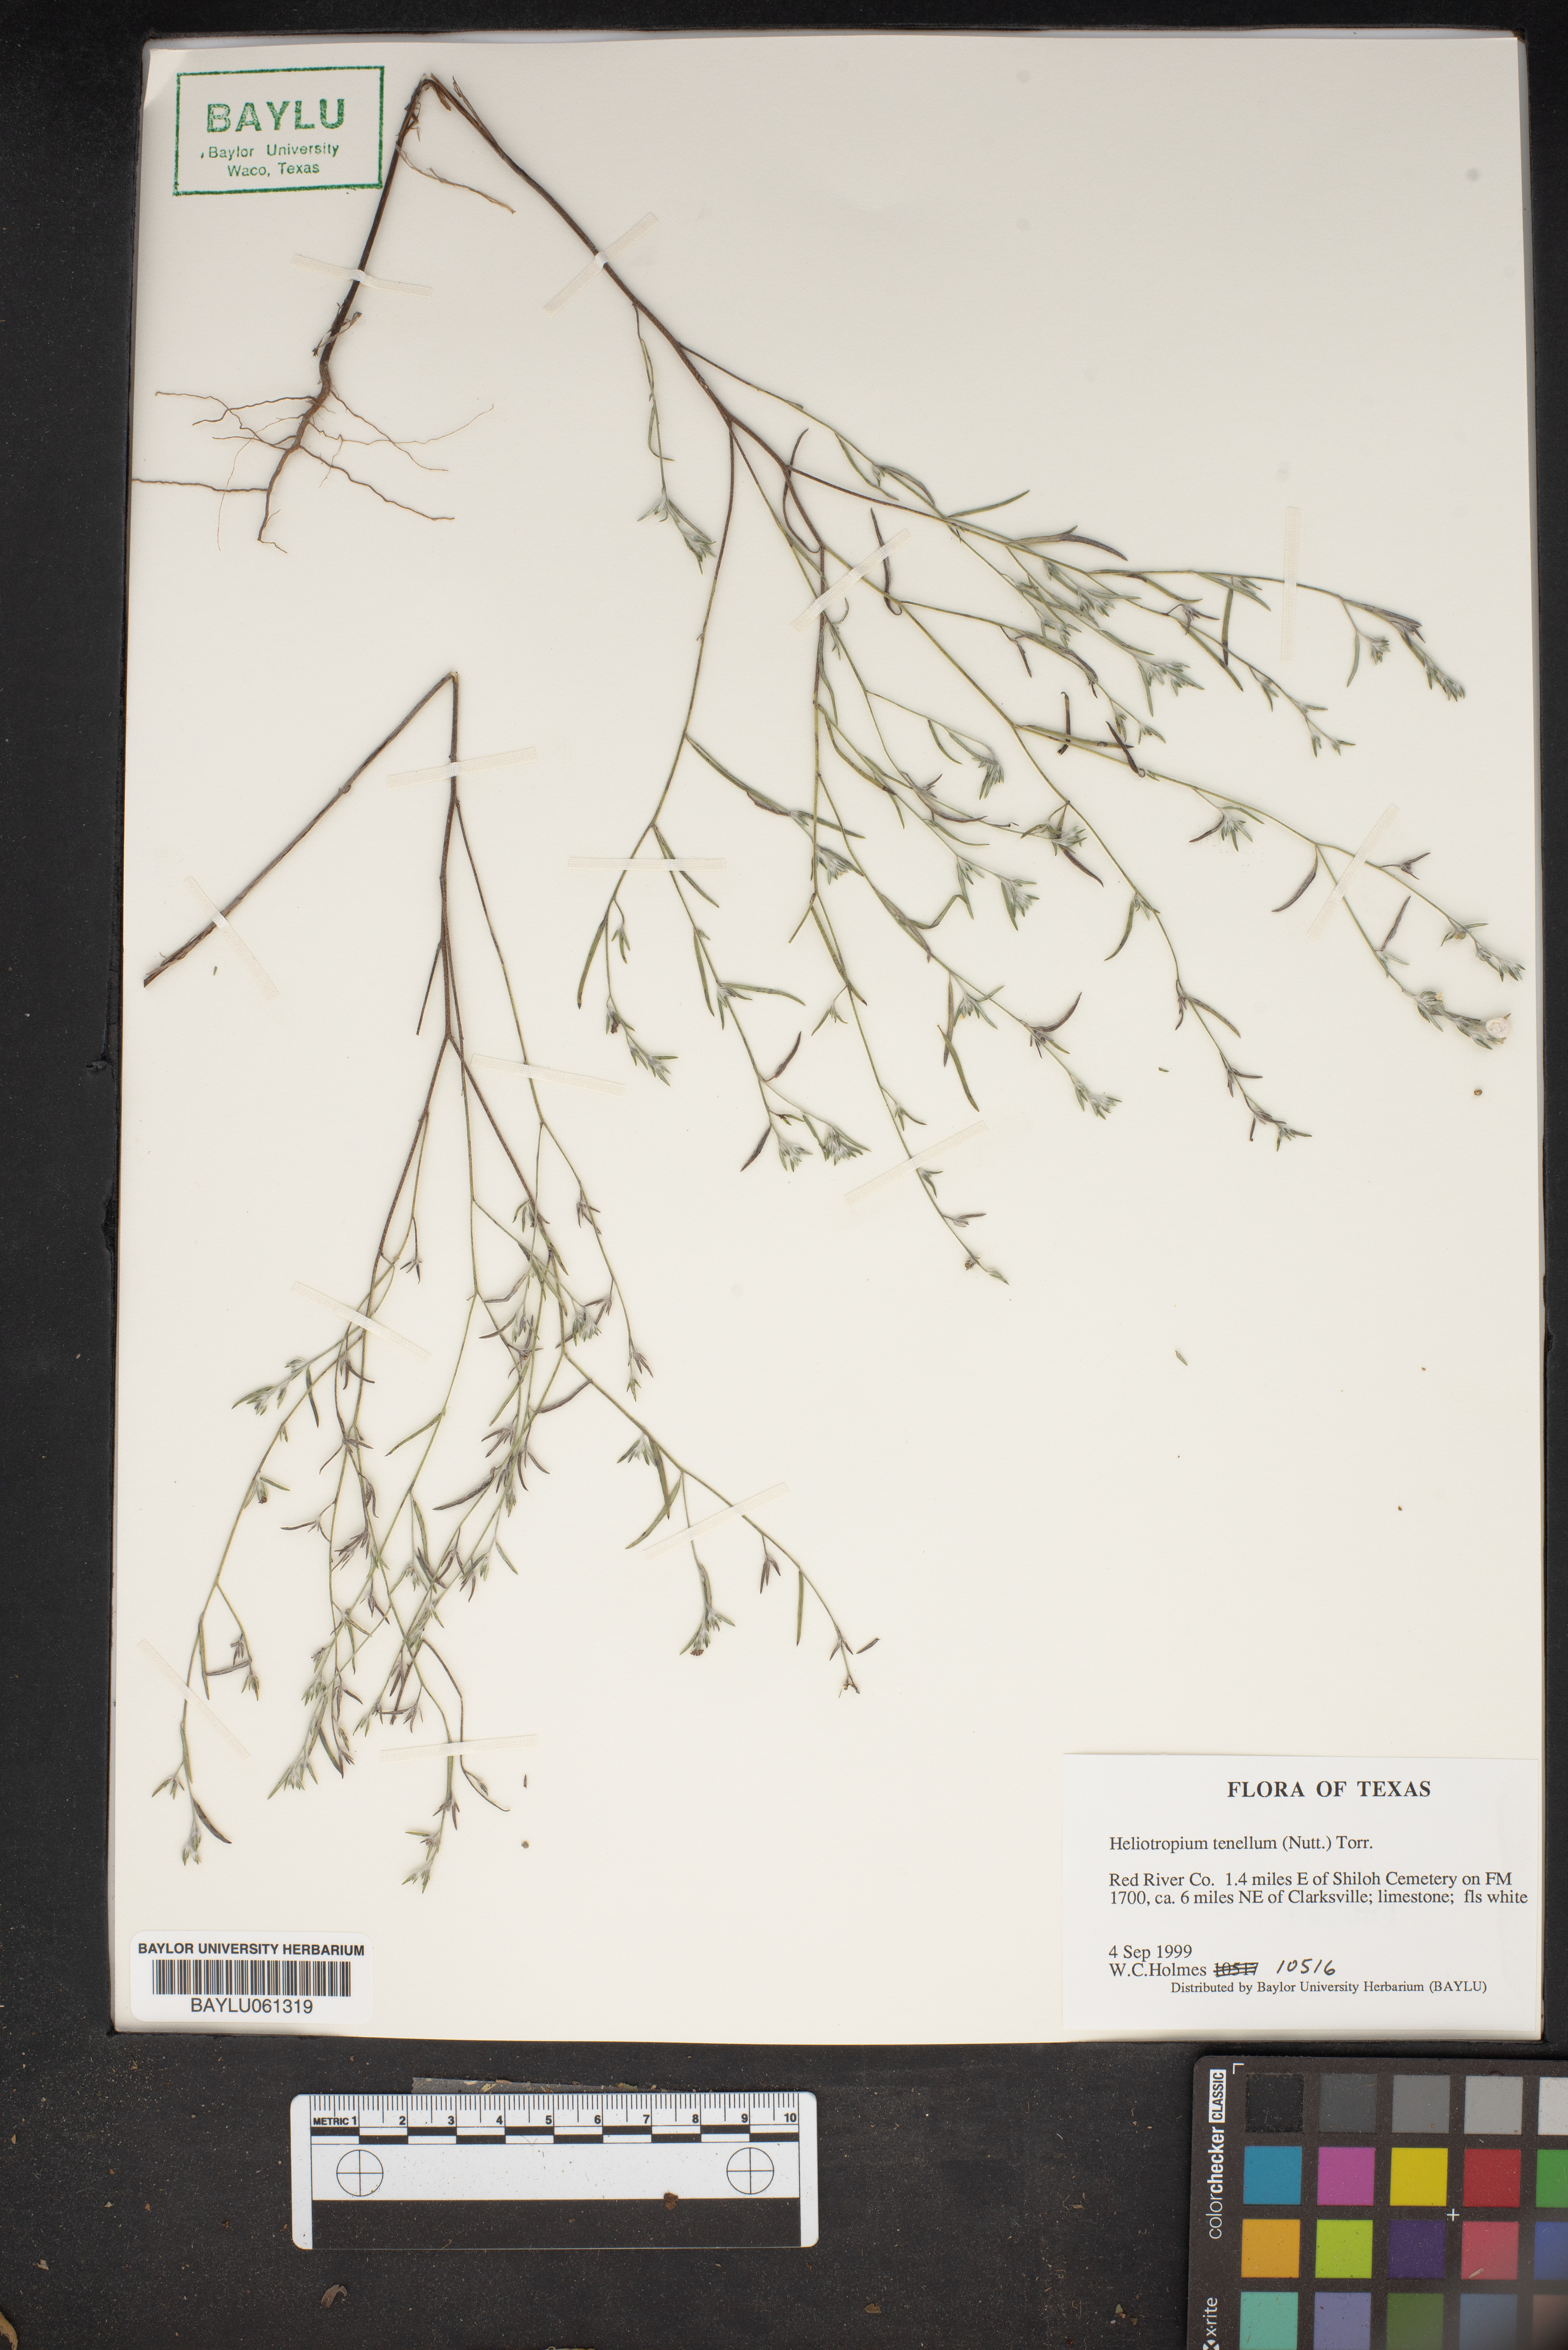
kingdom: Plantae
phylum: Tracheophyta
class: Magnoliopsida
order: Boraginales
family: Heliotropiaceae
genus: Euploca
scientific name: Euploca tenella
